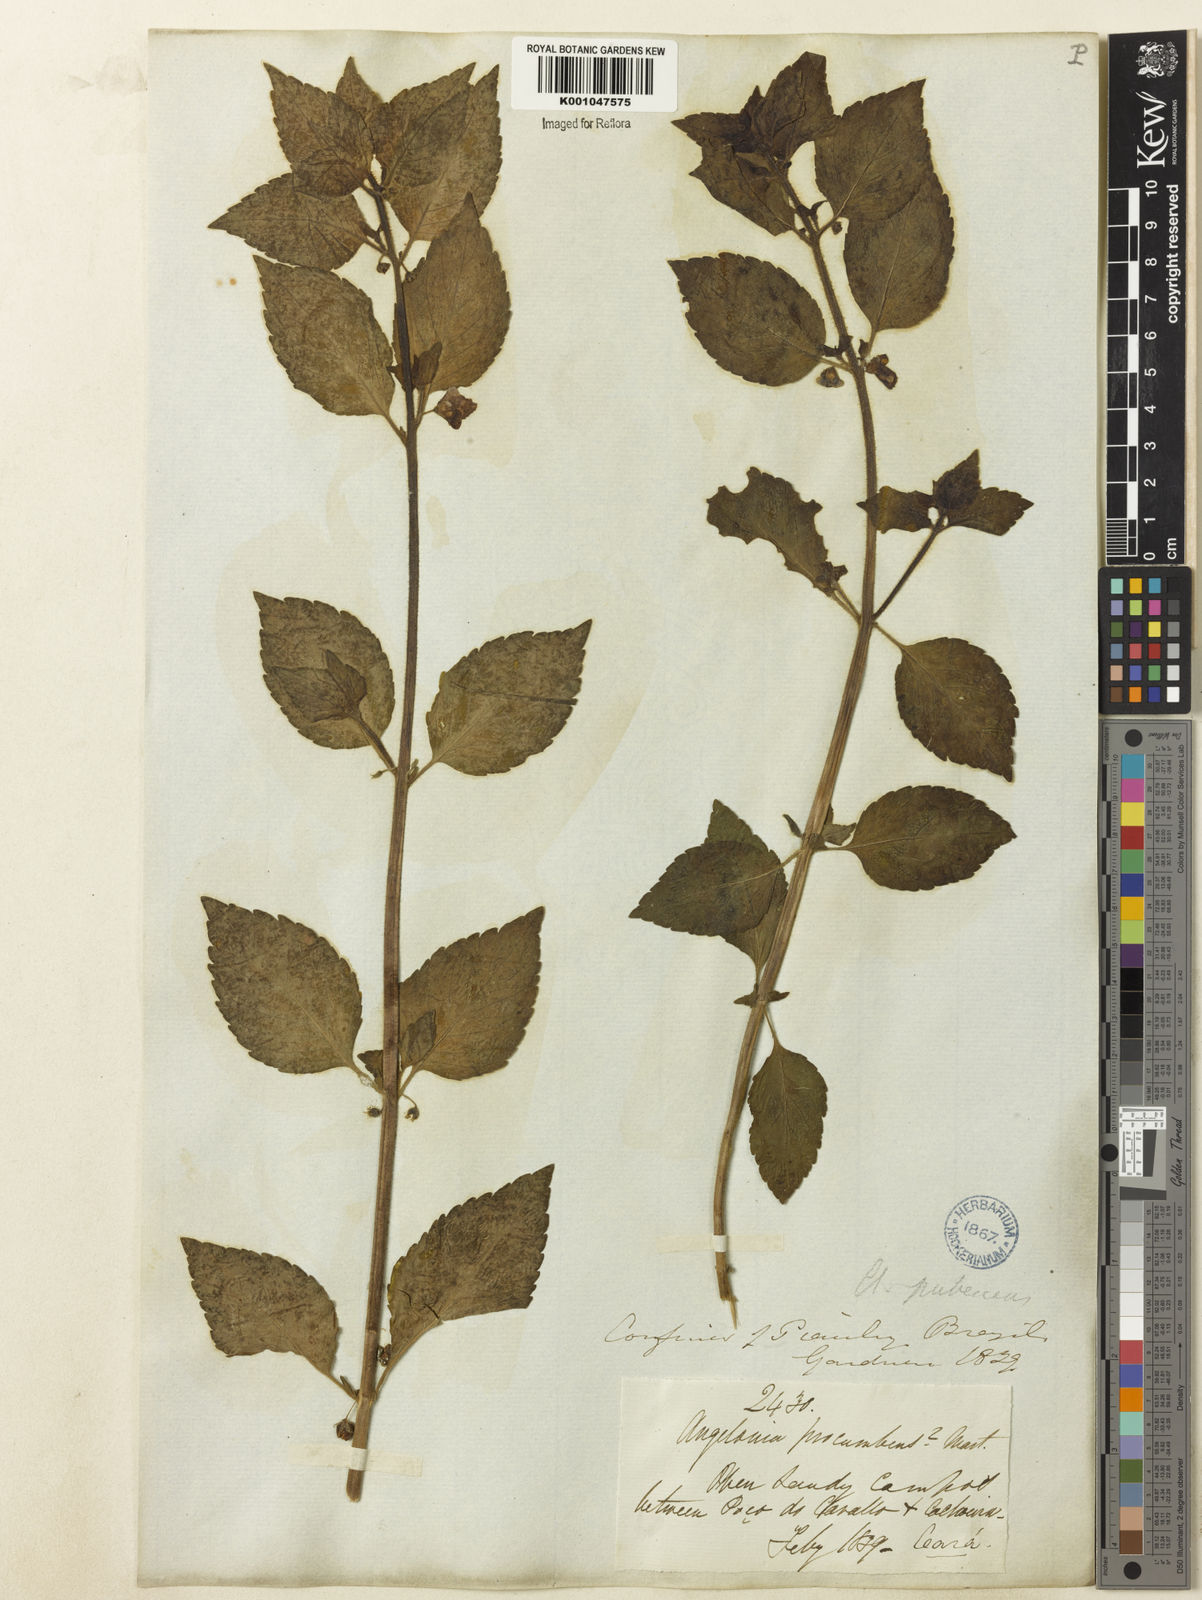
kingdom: Plantae
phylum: Tracheophyta
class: Magnoliopsida
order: Lamiales
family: Plantaginaceae
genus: Angelonia
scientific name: Angelonia pubescens
